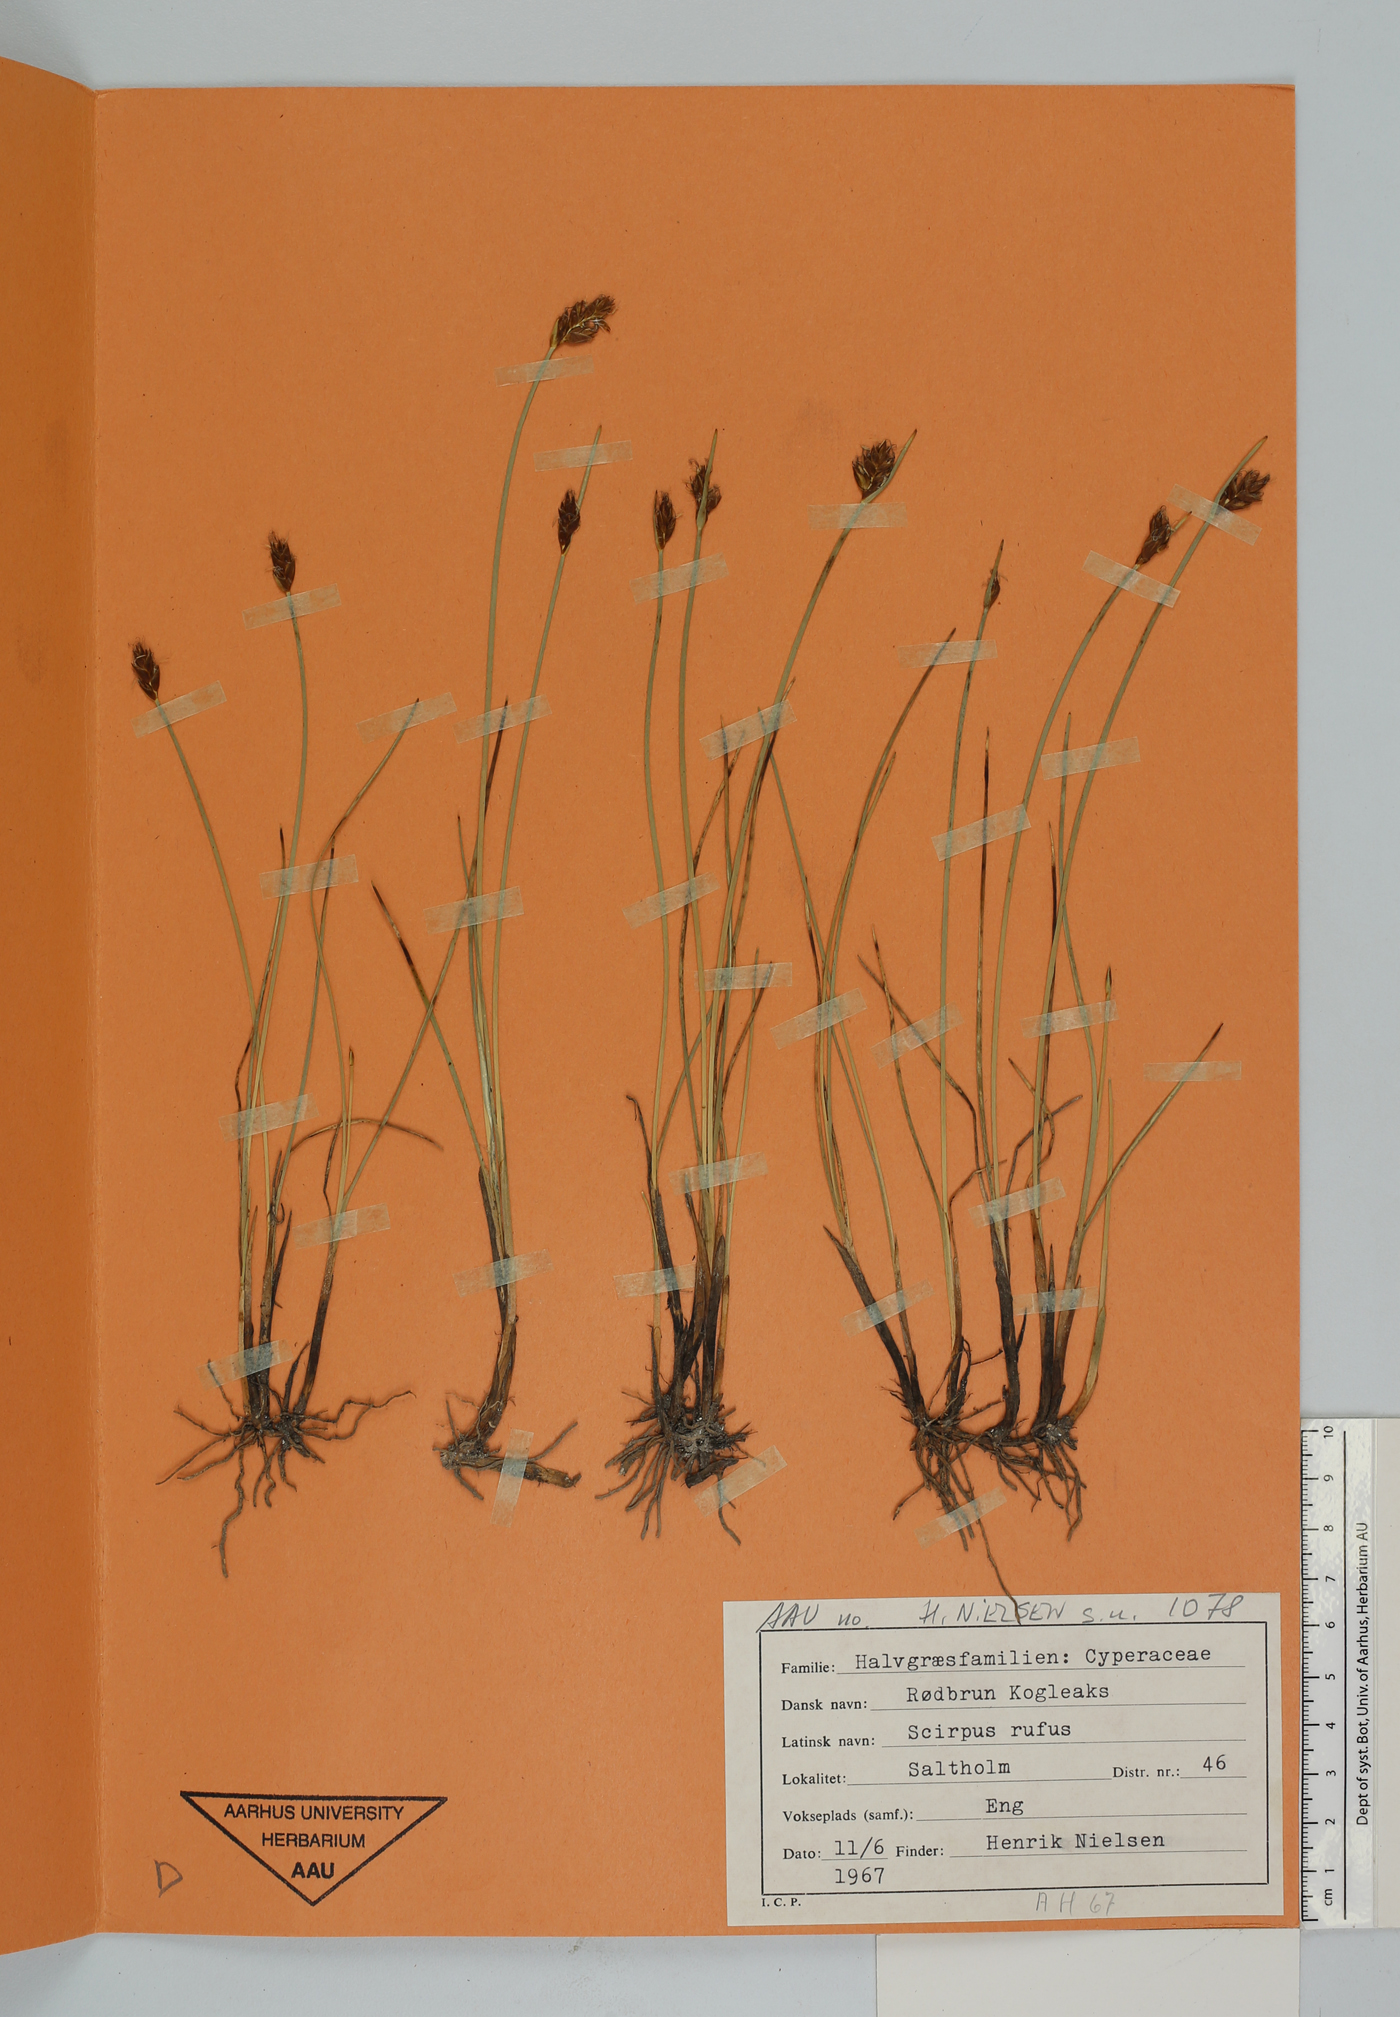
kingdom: Plantae
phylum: Tracheophyta
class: Liliopsida
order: Poales
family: Cyperaceae
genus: Blysmus
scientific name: Blysmus rufus
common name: Saltmarsh flat-sedge
